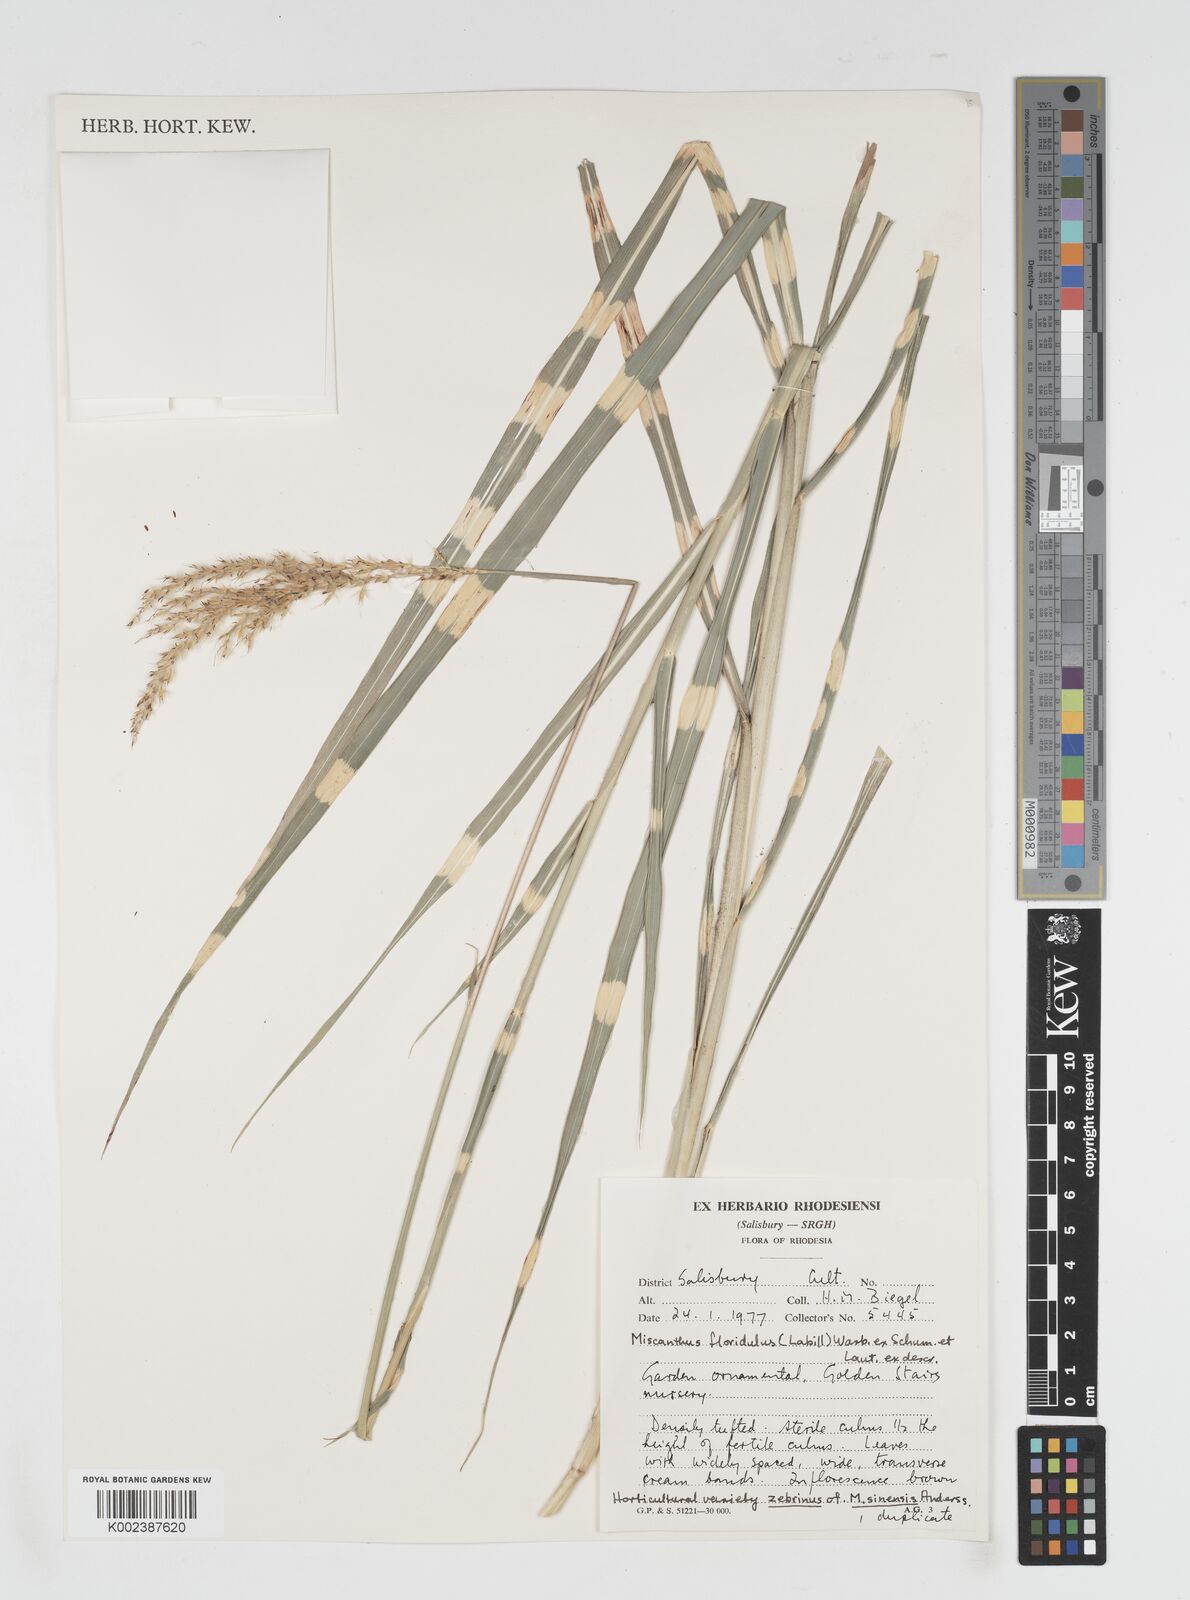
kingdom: Plantae
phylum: Tracheophyta
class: Liliopsida
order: Poales
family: Poaceae
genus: Miscanthus
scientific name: Miscanthus floridulus
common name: Pacific island silvergrass
